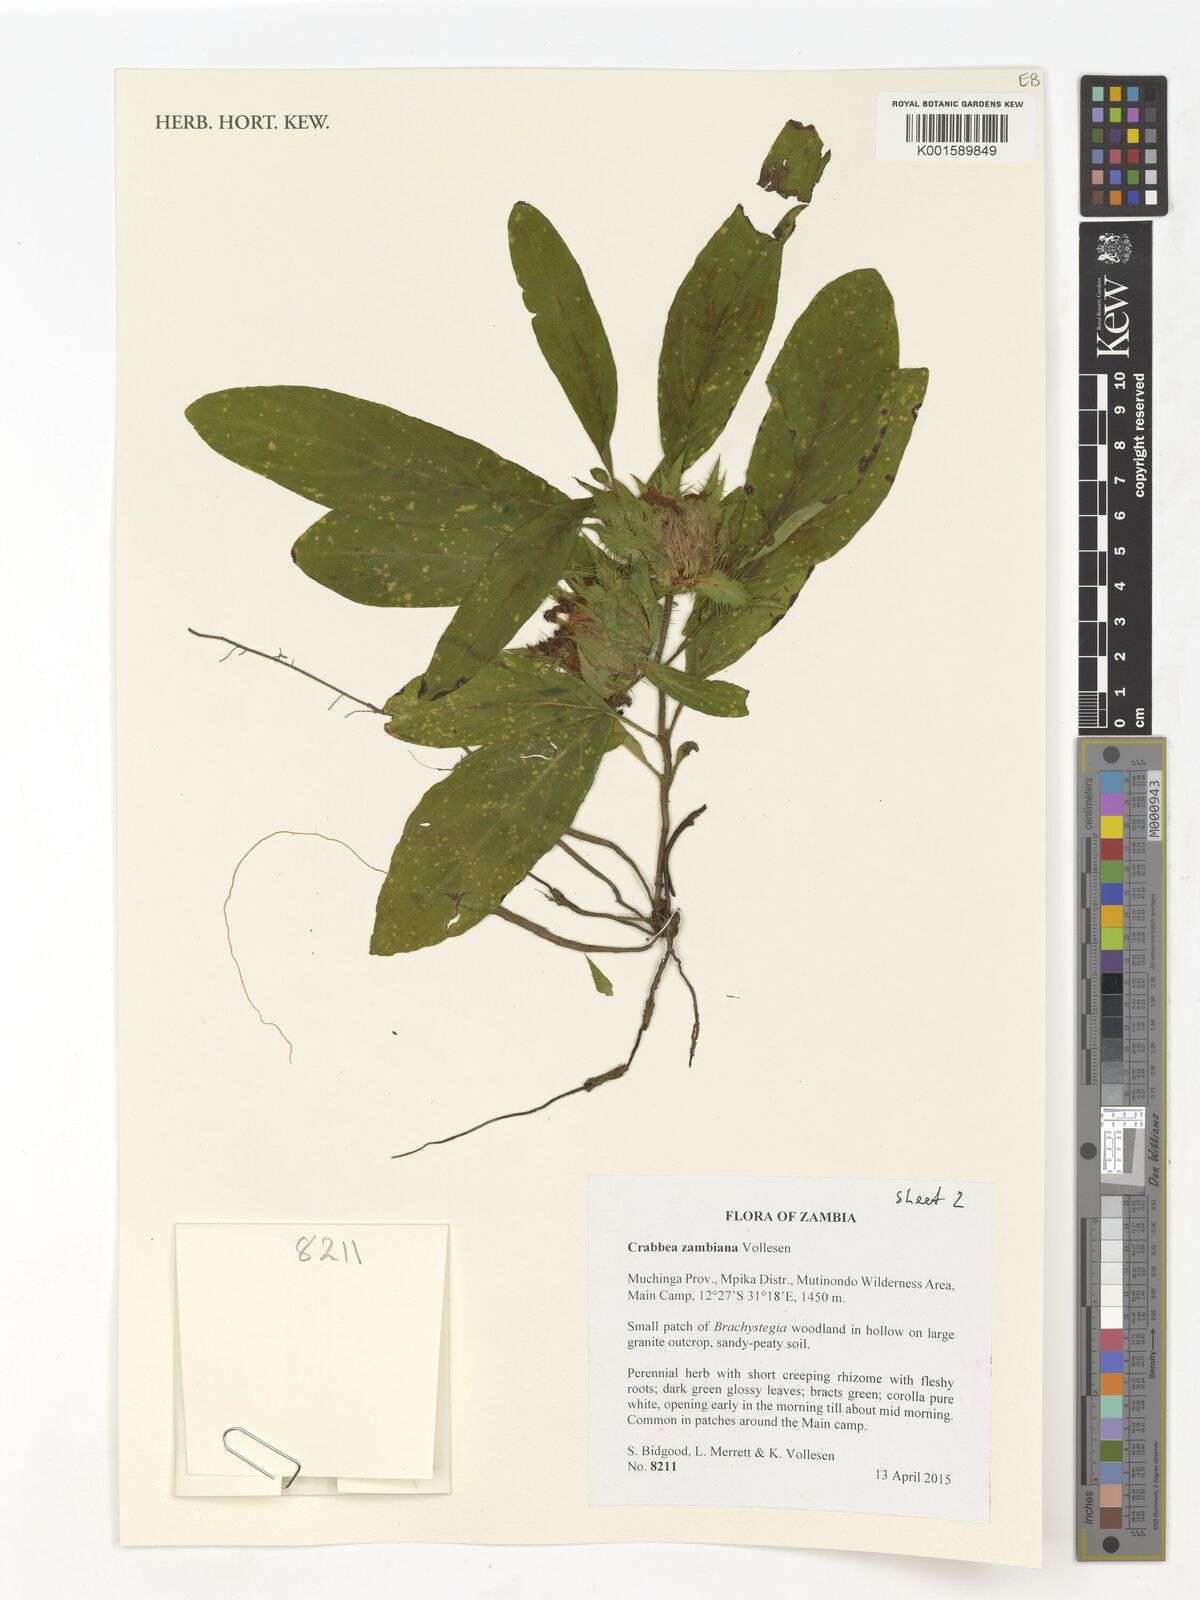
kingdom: Plantae
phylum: Tracheophyta
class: Magnoliopsida
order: Lamiales
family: Acanthaceae
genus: Crabbea
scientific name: Crabbea zambiana
